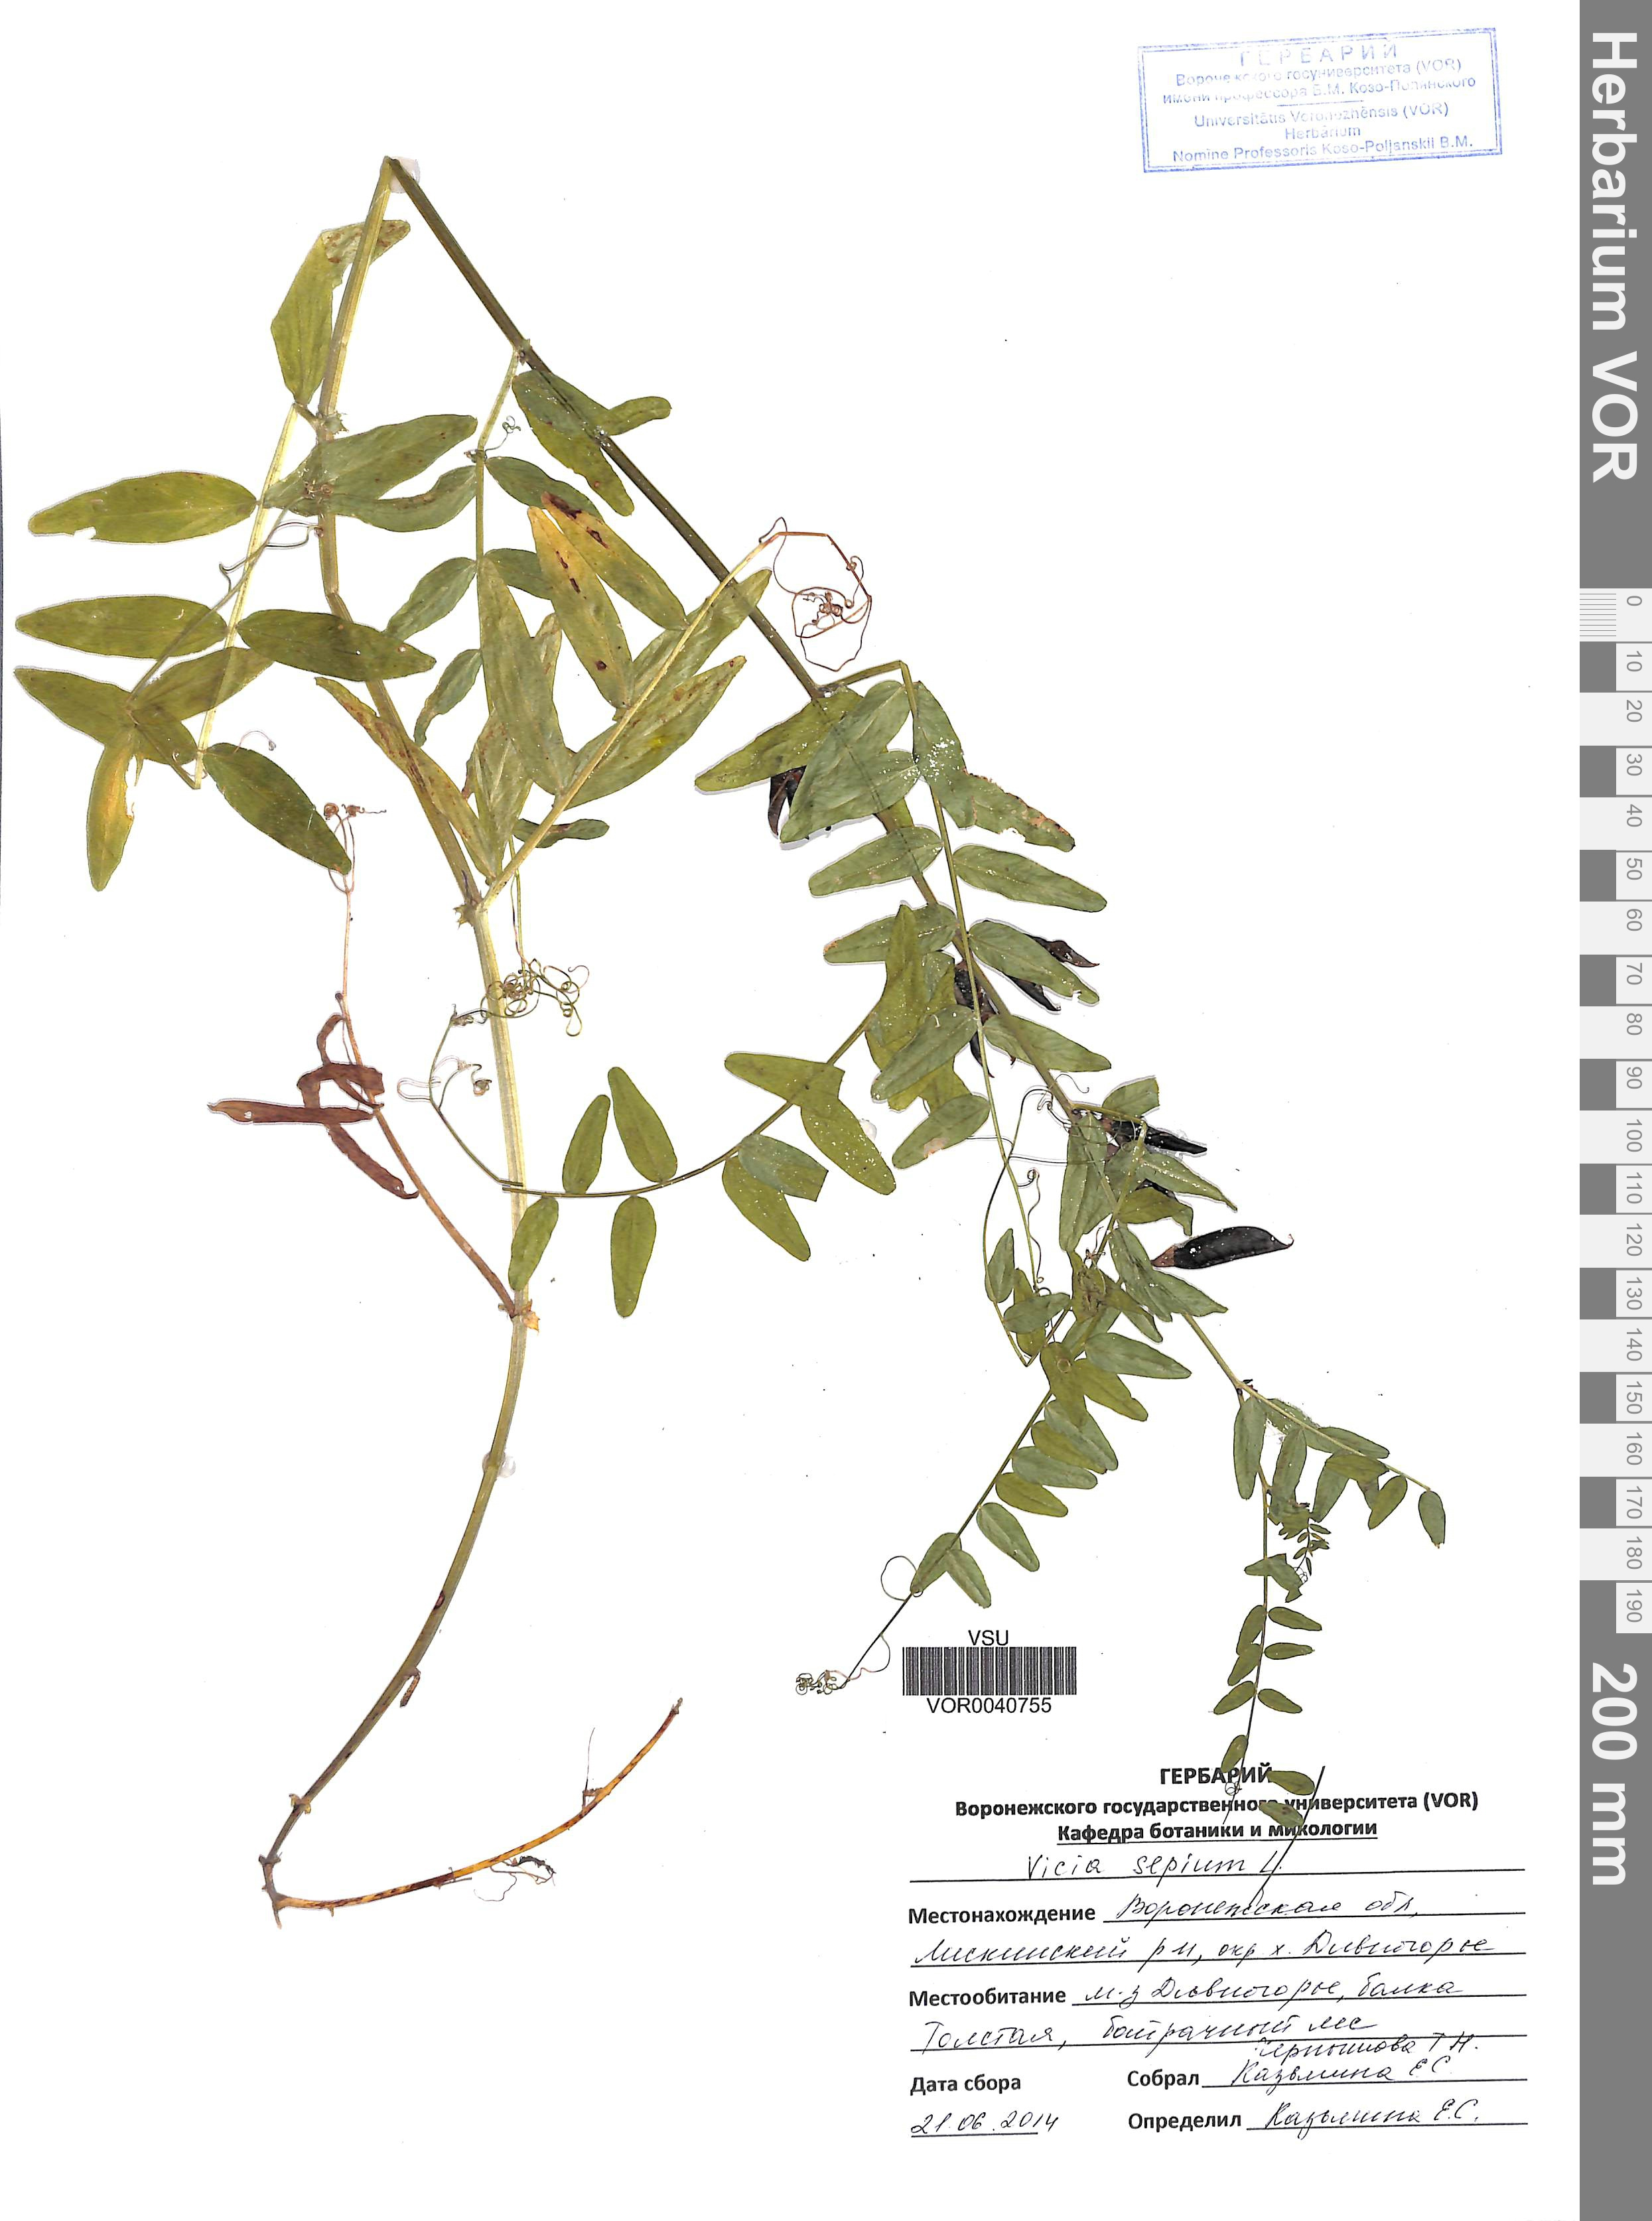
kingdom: Plantae
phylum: Tracheophyta
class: Magnoliopsida
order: Fabales
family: Fabaceae
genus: Vicia
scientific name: Vicia sepium
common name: Bush vetch
